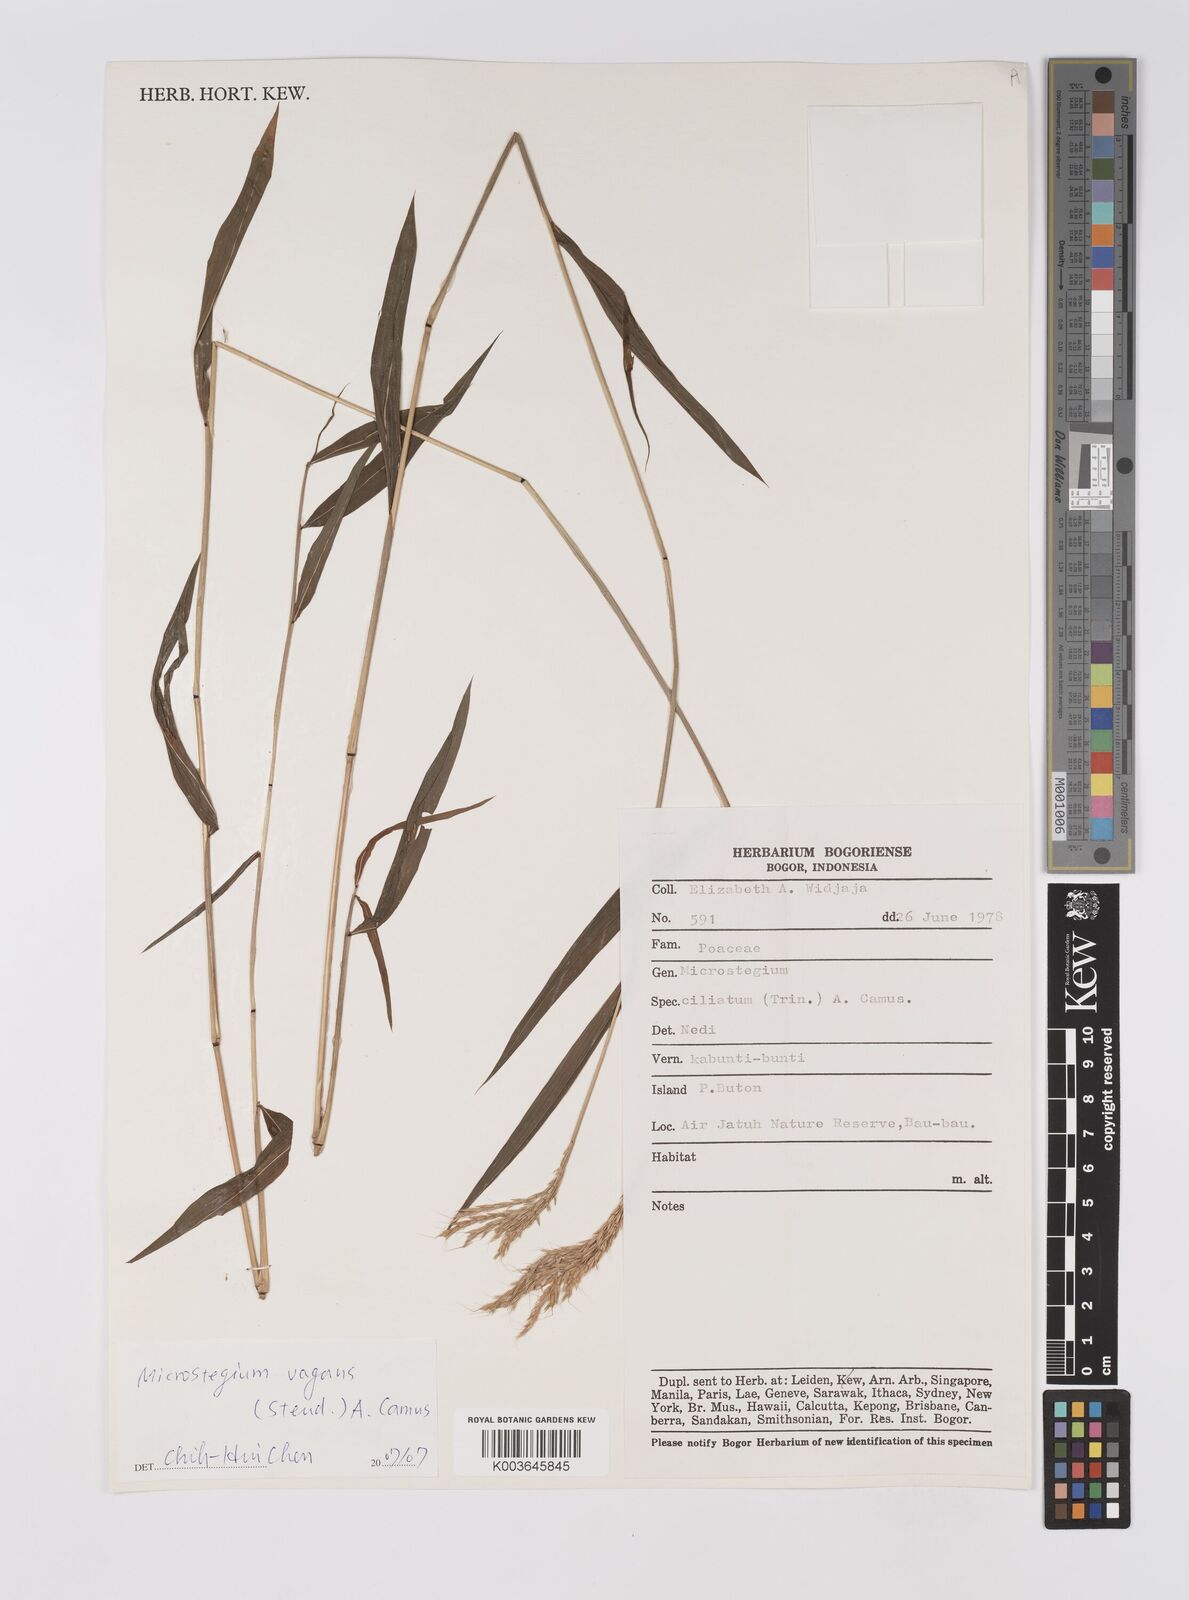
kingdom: Plantae
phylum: Tracheophyta
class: Liliopsida
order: Poales
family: Poaceae
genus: Microstegium
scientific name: Microstegium fasciculatum
